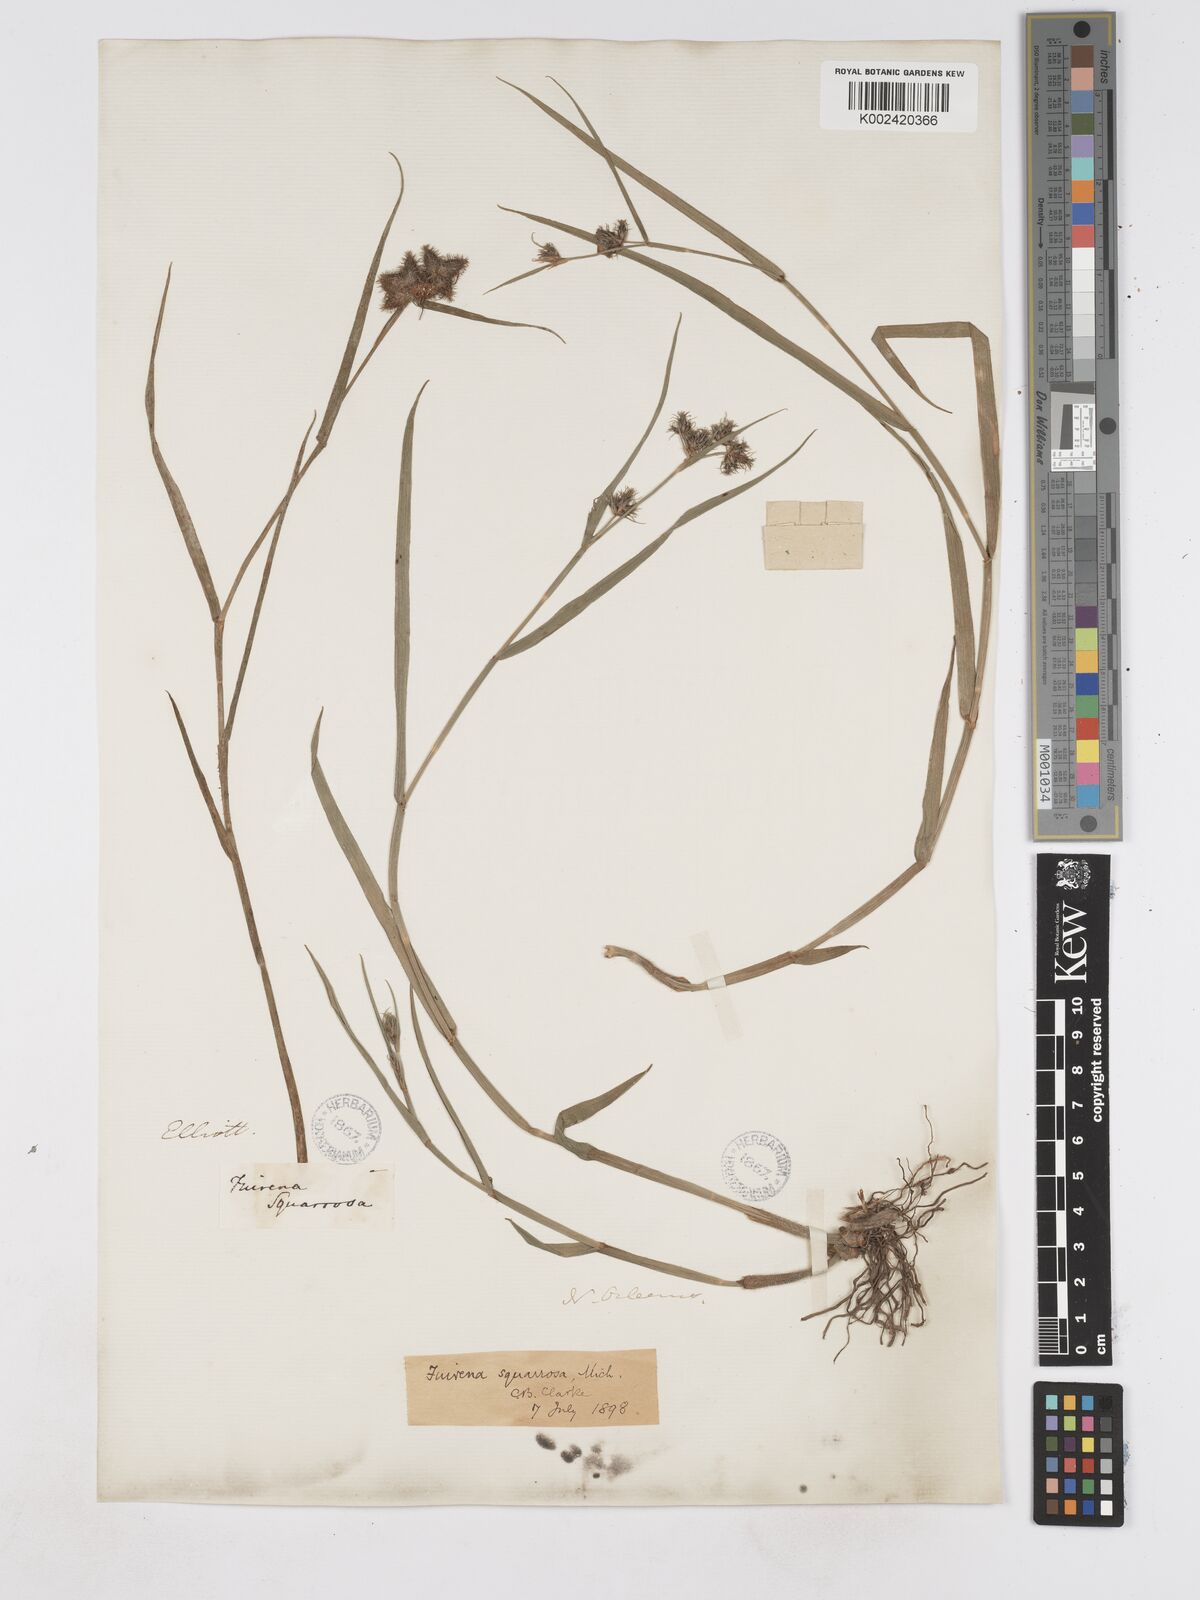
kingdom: Plantae
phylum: Tracheophyta
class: Liliopsida
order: Poales
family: Cyperaceae
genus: Fuirena
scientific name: Fuirena squarrosa
